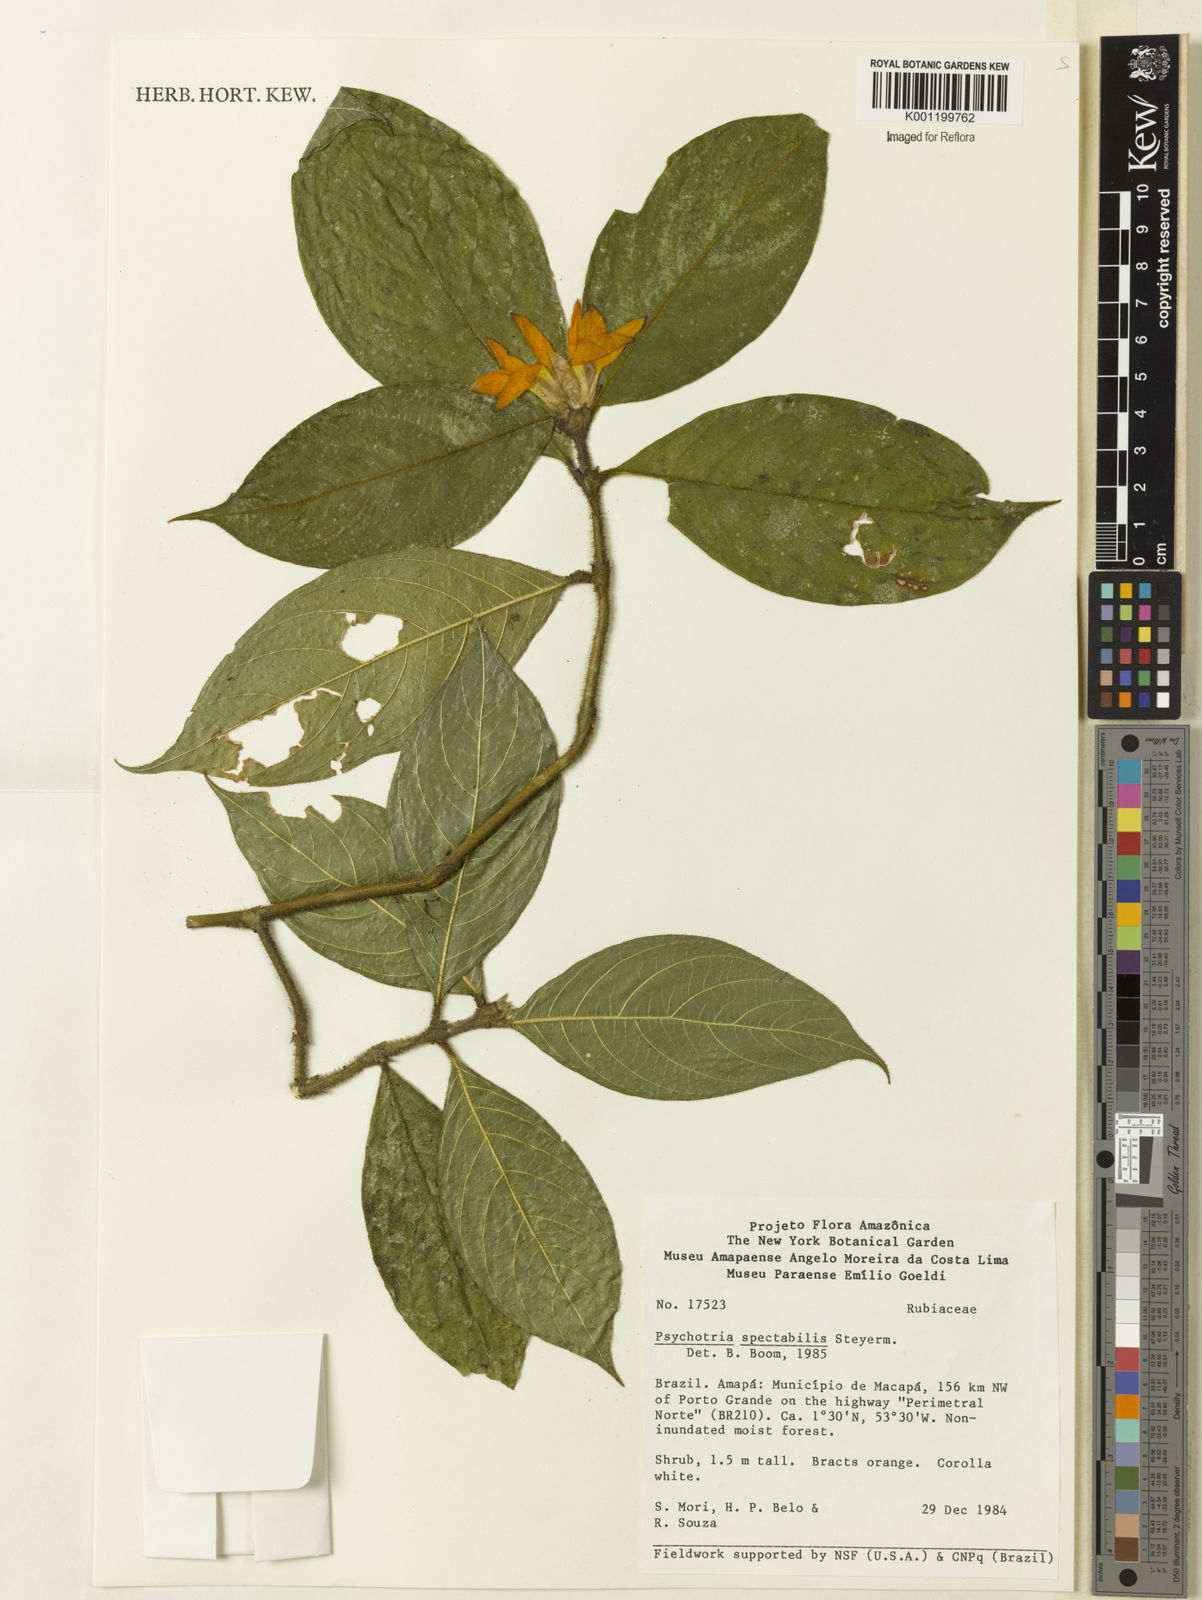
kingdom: Plantae
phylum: Tracheophyta
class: Magnoliopsida
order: Gentianales
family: Rubiaceae
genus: Palicourea
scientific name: Palicourea spectabilis
